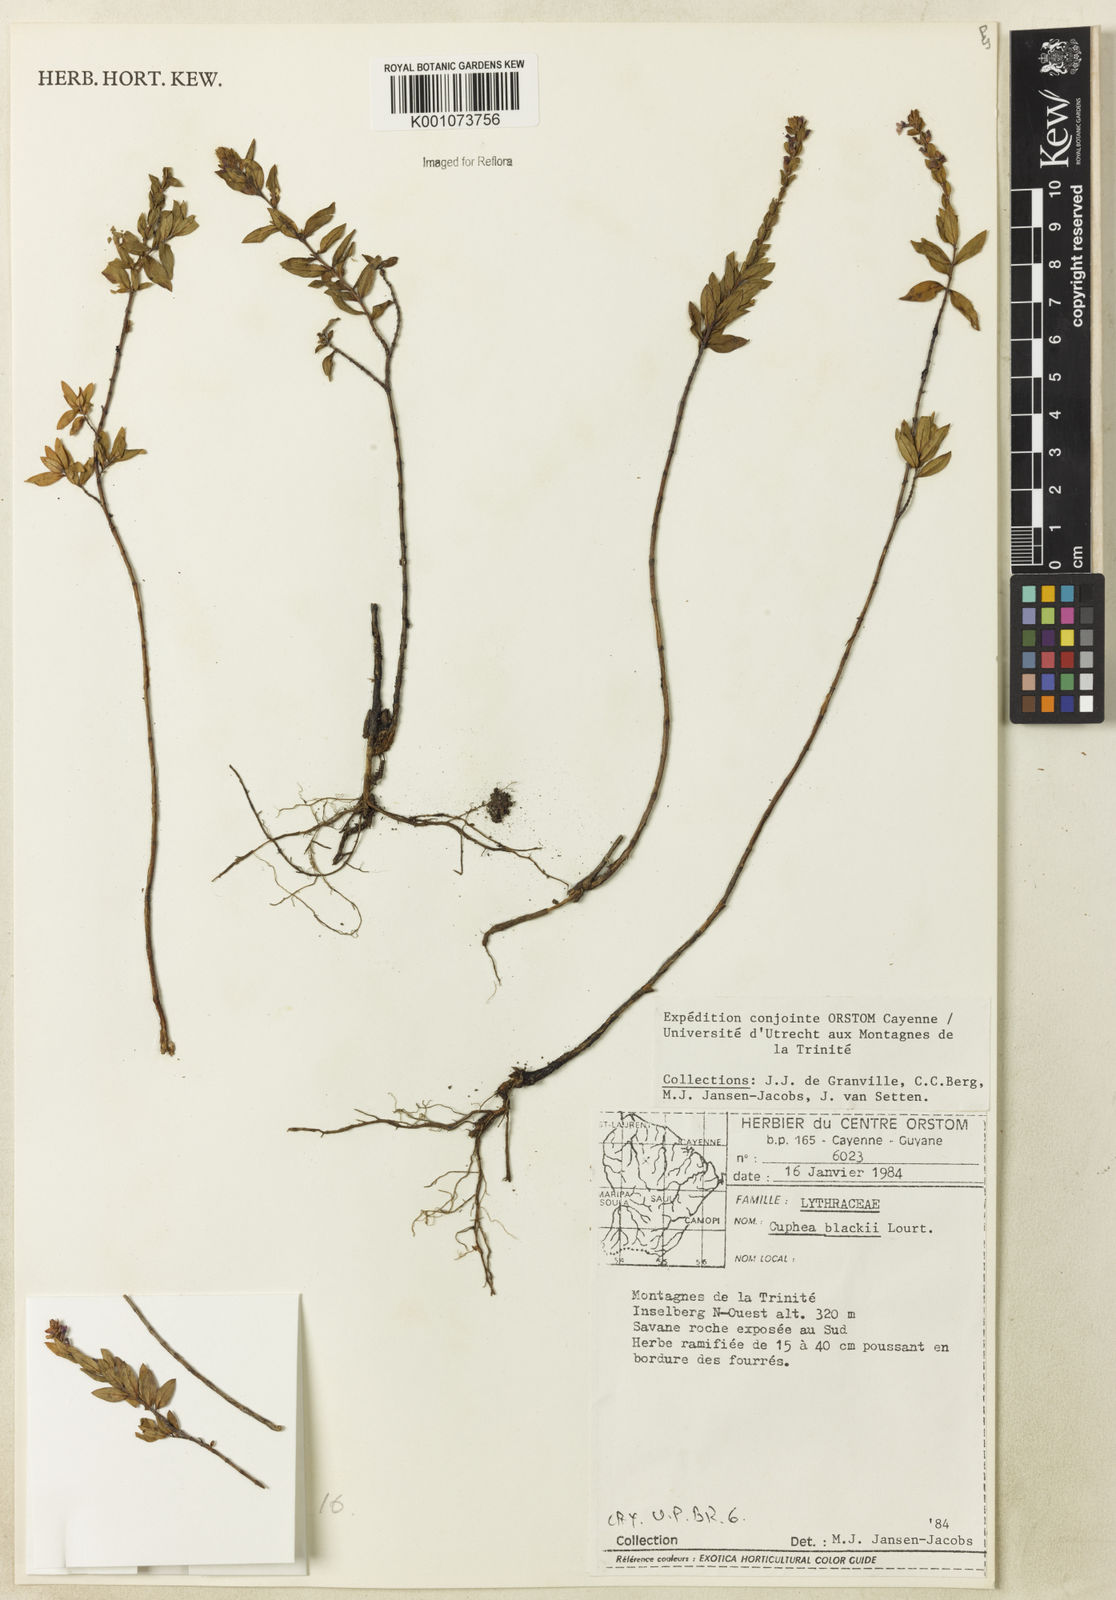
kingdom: Plantae
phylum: Tracheophyta
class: Magnoliopsida
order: Myrtales
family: Lythraceae
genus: Cuphea
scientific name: Cuphea blackii
